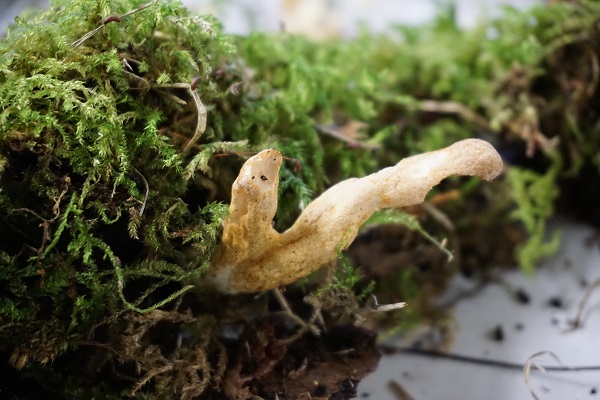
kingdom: Fungi
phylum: Ascomycota
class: Sordariomycetes
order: Hypocreales
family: Hypocreaceae
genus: Trichoderma
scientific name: Trichoderma alutaceum
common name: gevir-kødkerne
